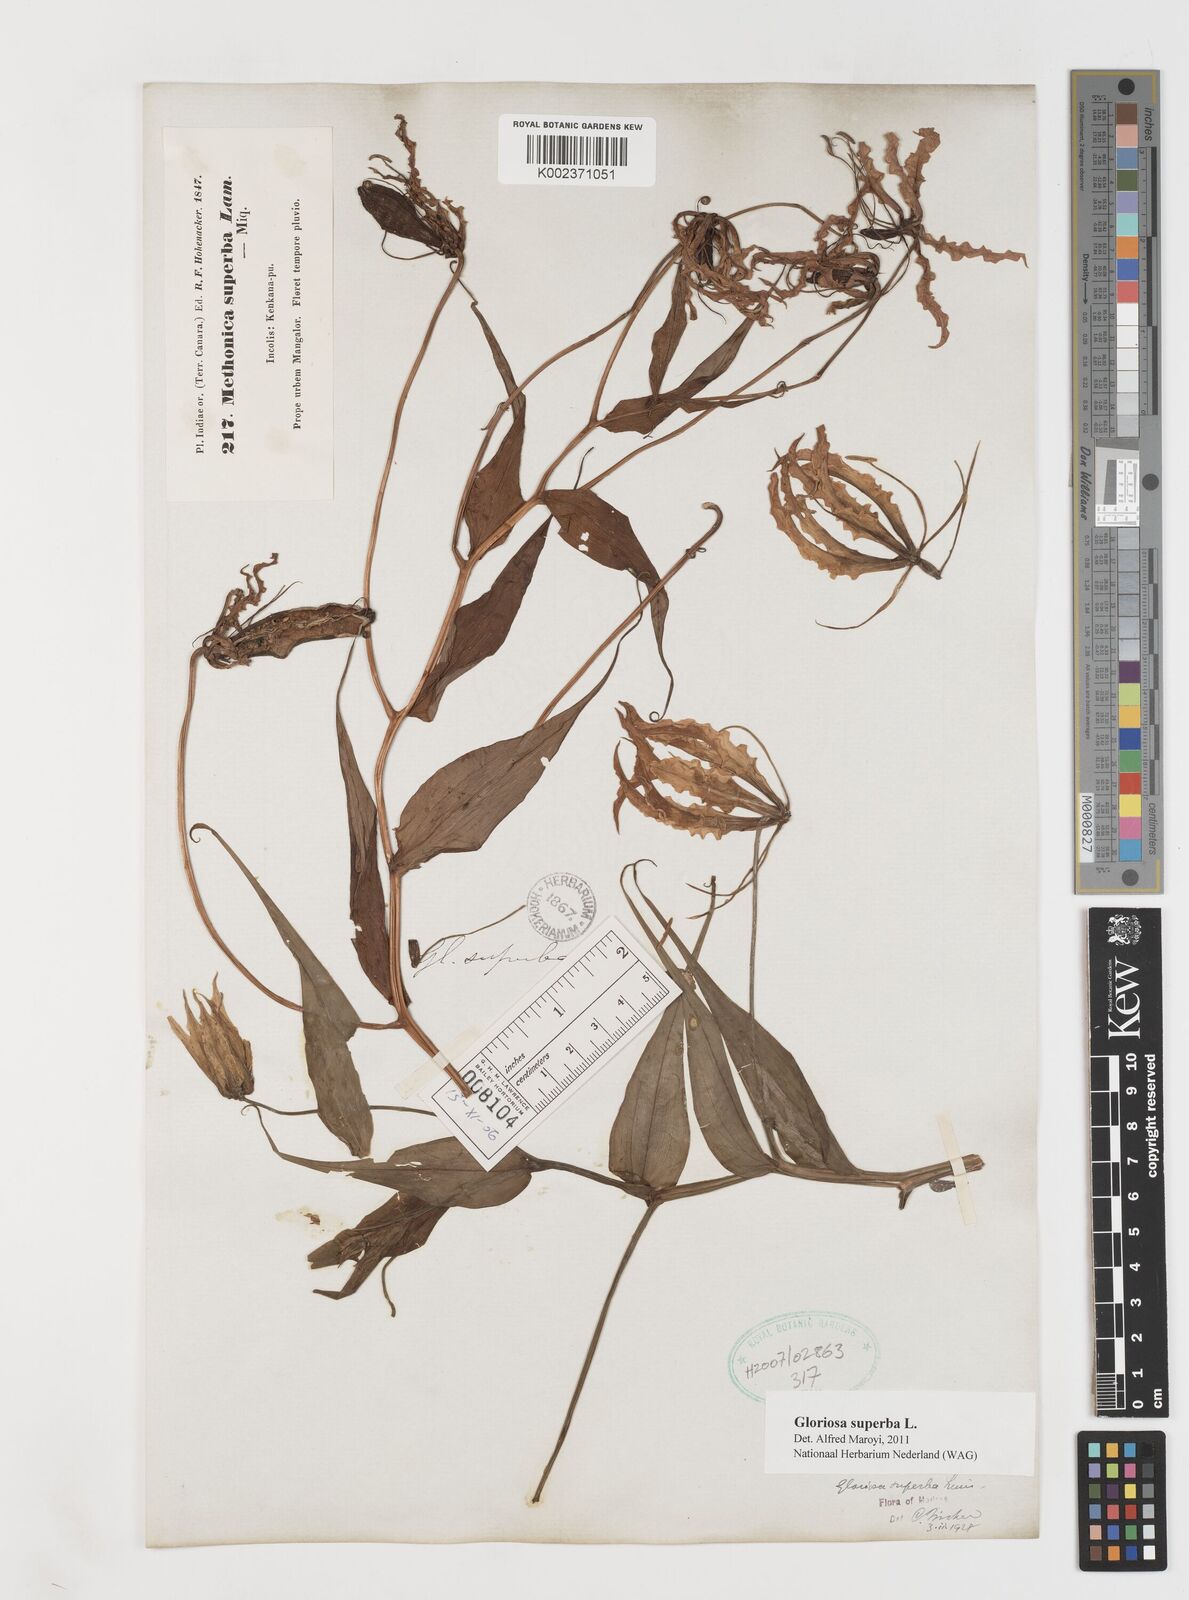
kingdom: Plantae
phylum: Tracheophyta
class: Liliopsida
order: Liliales
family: Colchicaceae
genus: Gloriosa
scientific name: Gloriosa
